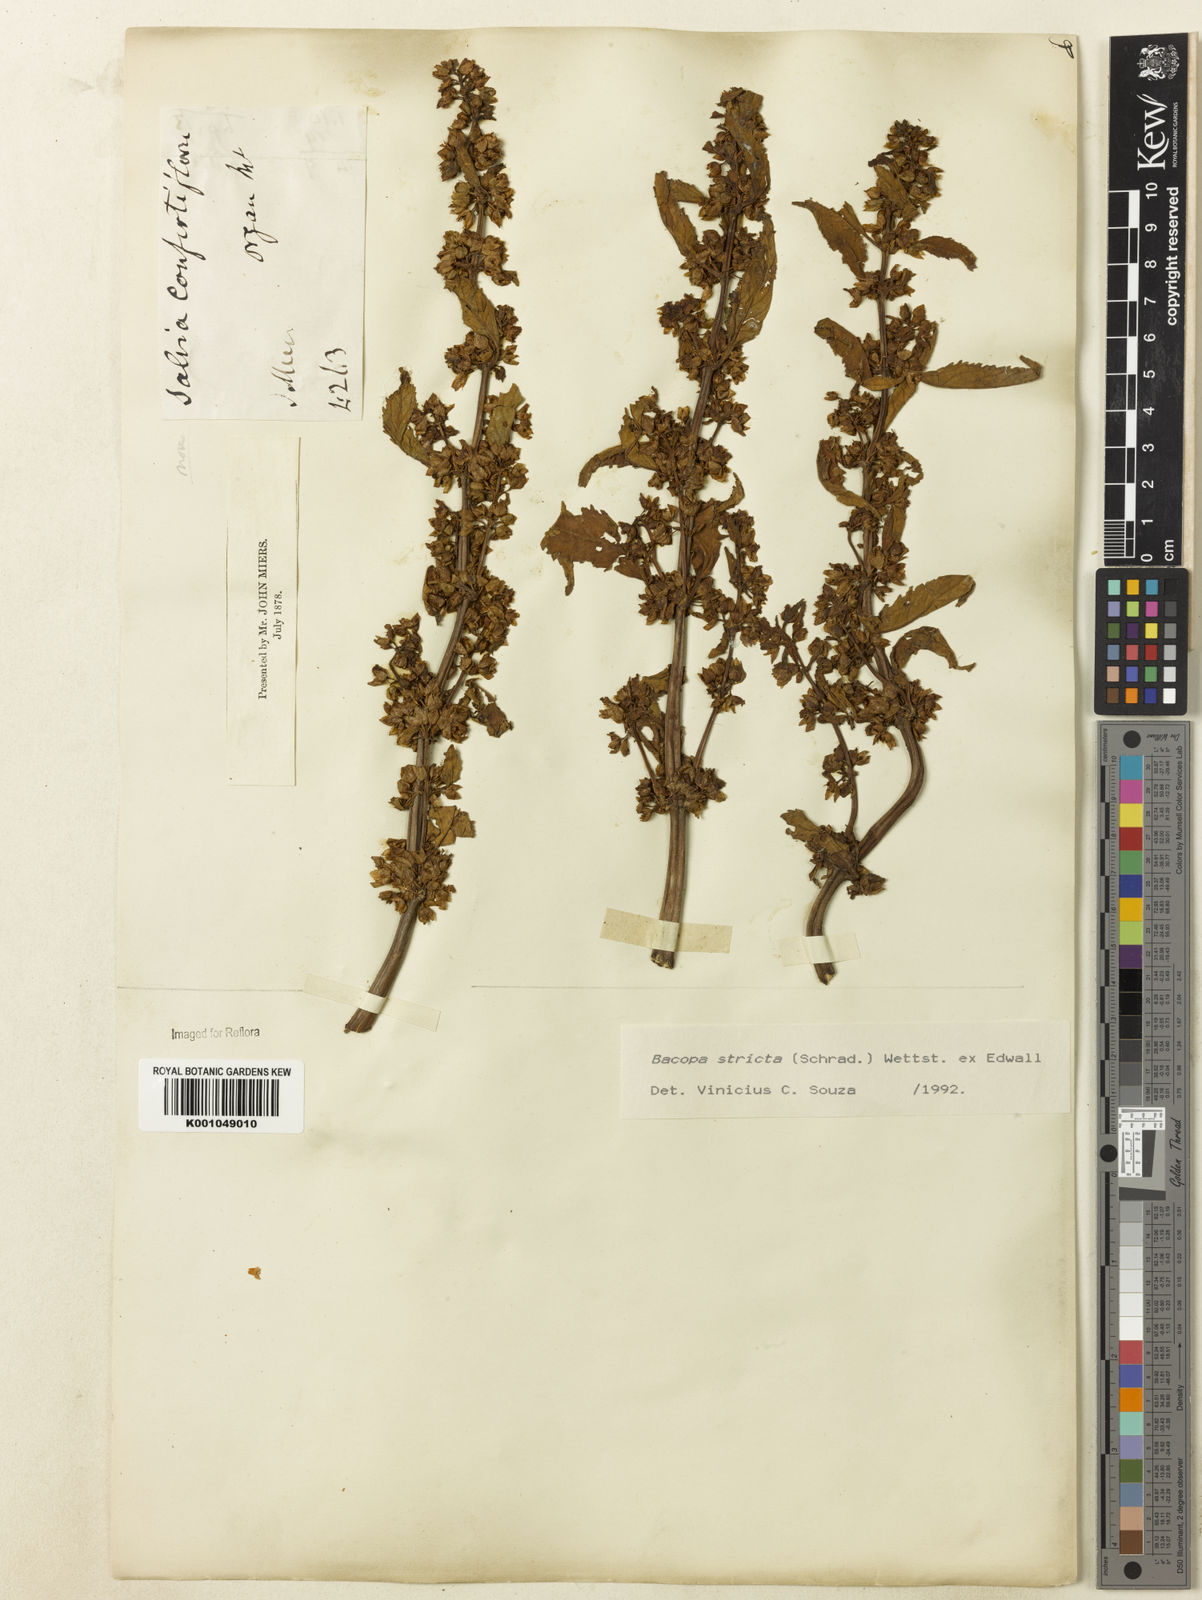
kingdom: Plantae
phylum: Tracheophyta
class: Magnoliopsida
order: Lamiales
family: Plantaginaceae
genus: Bacopa
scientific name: Bacopa stricta
